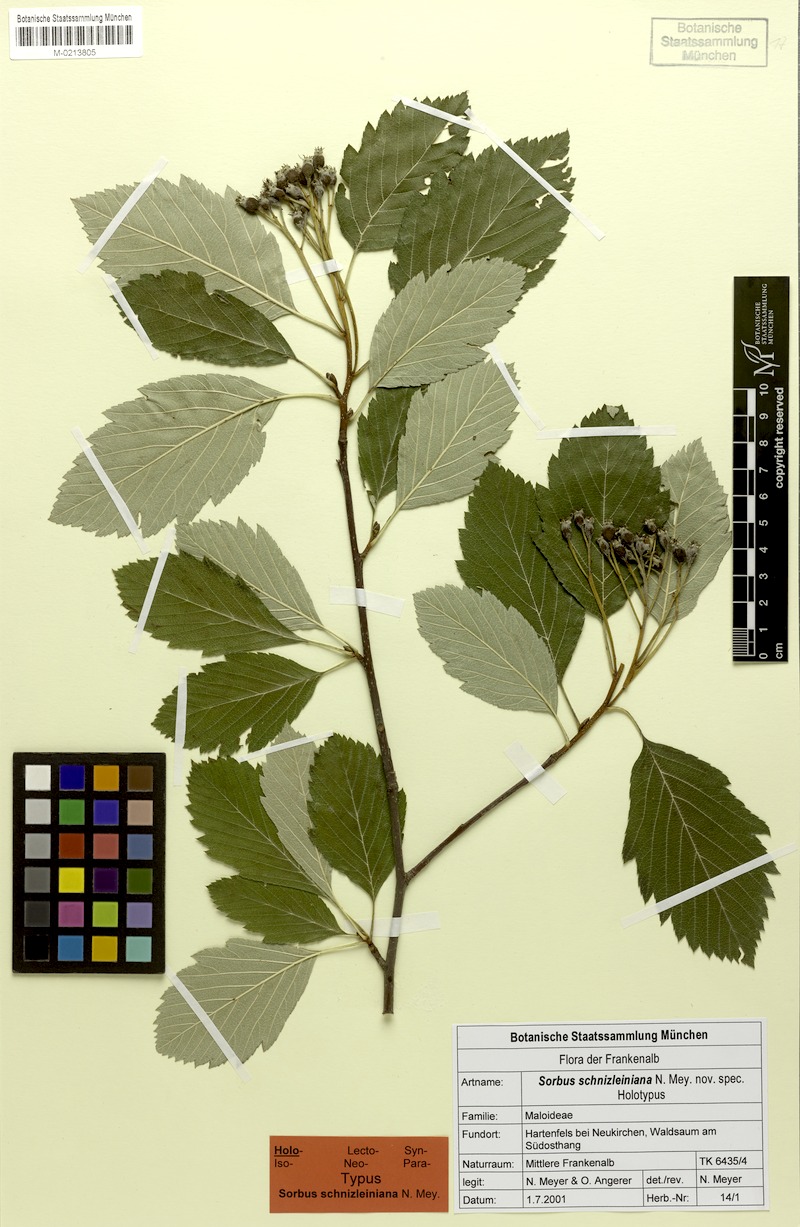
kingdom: Plantae
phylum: Tracheophyta
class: Magnoliopsida
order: Rosales
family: Rosaceae
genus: Karpatiosorbus
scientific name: Karpatiosorbus schnizleiniana
